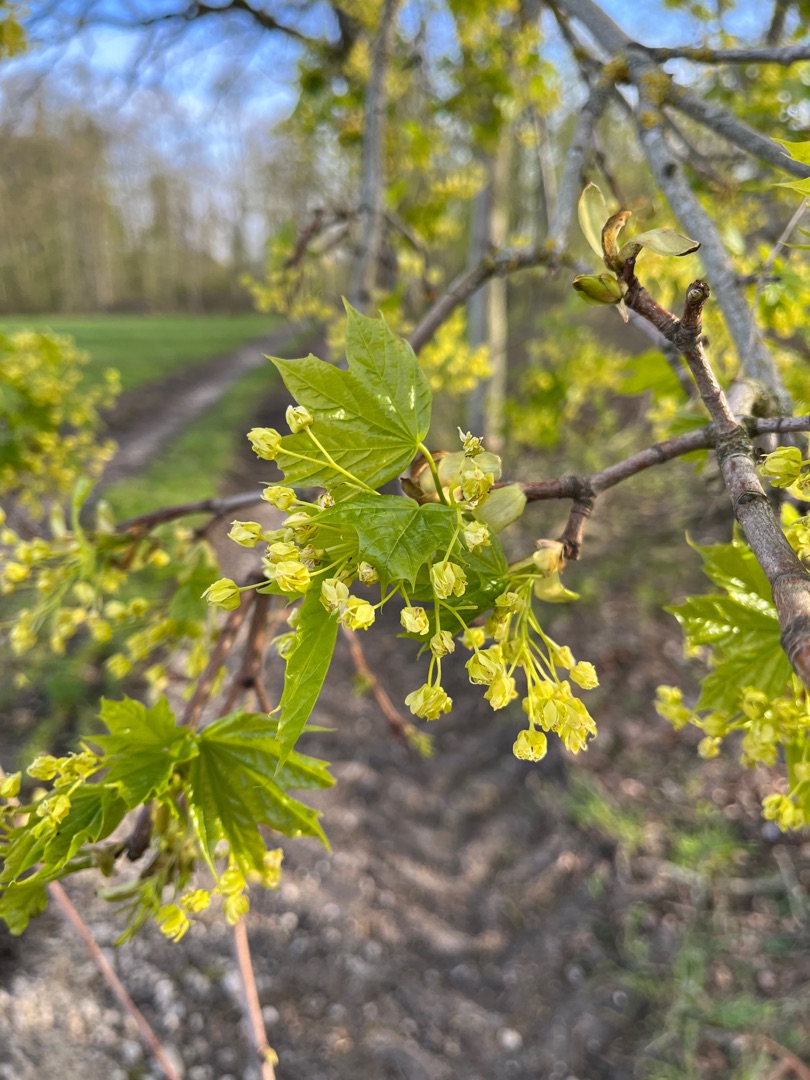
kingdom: Plantae
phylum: Tracheophyta
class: Magnoliopsida
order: Sapindales
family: Sapindaceae
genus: Acer
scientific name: Acer platanoides
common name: Spids-løn
